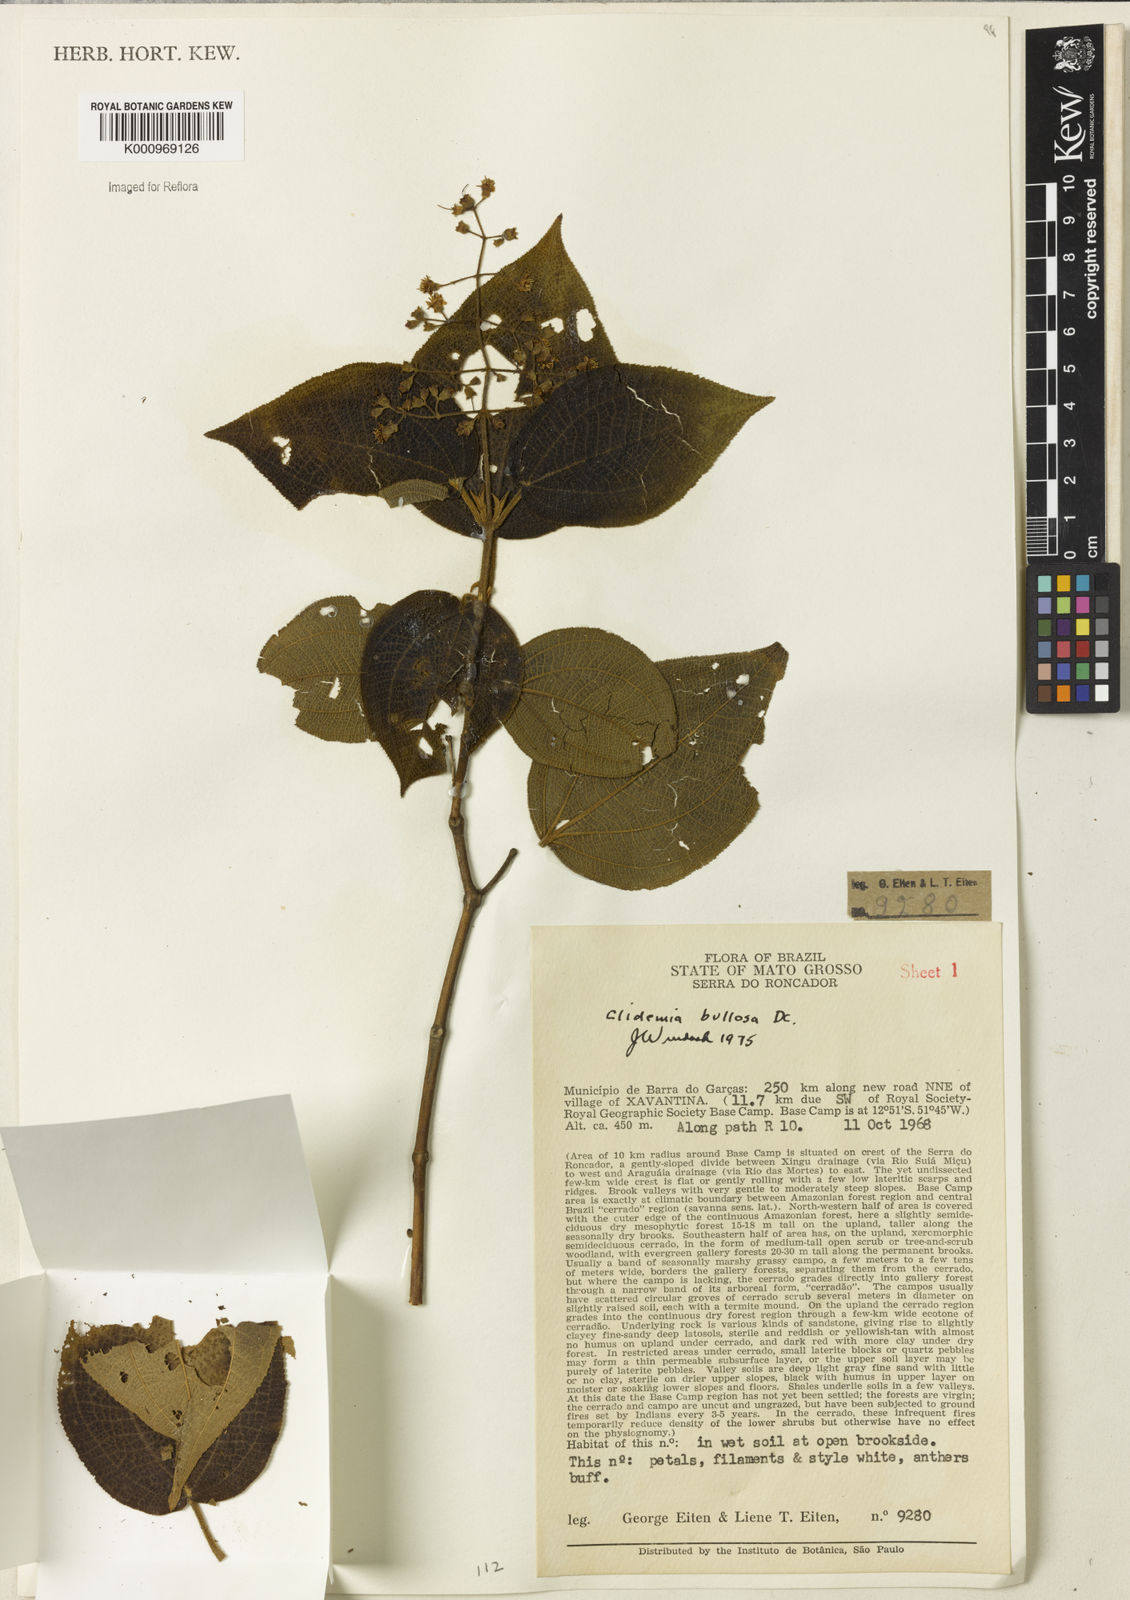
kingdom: Plantae
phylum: Tracheophyta
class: Magnoliopsida
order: Myrtales
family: Melastomataceae
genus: Miconia
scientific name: Miconia biserrata
